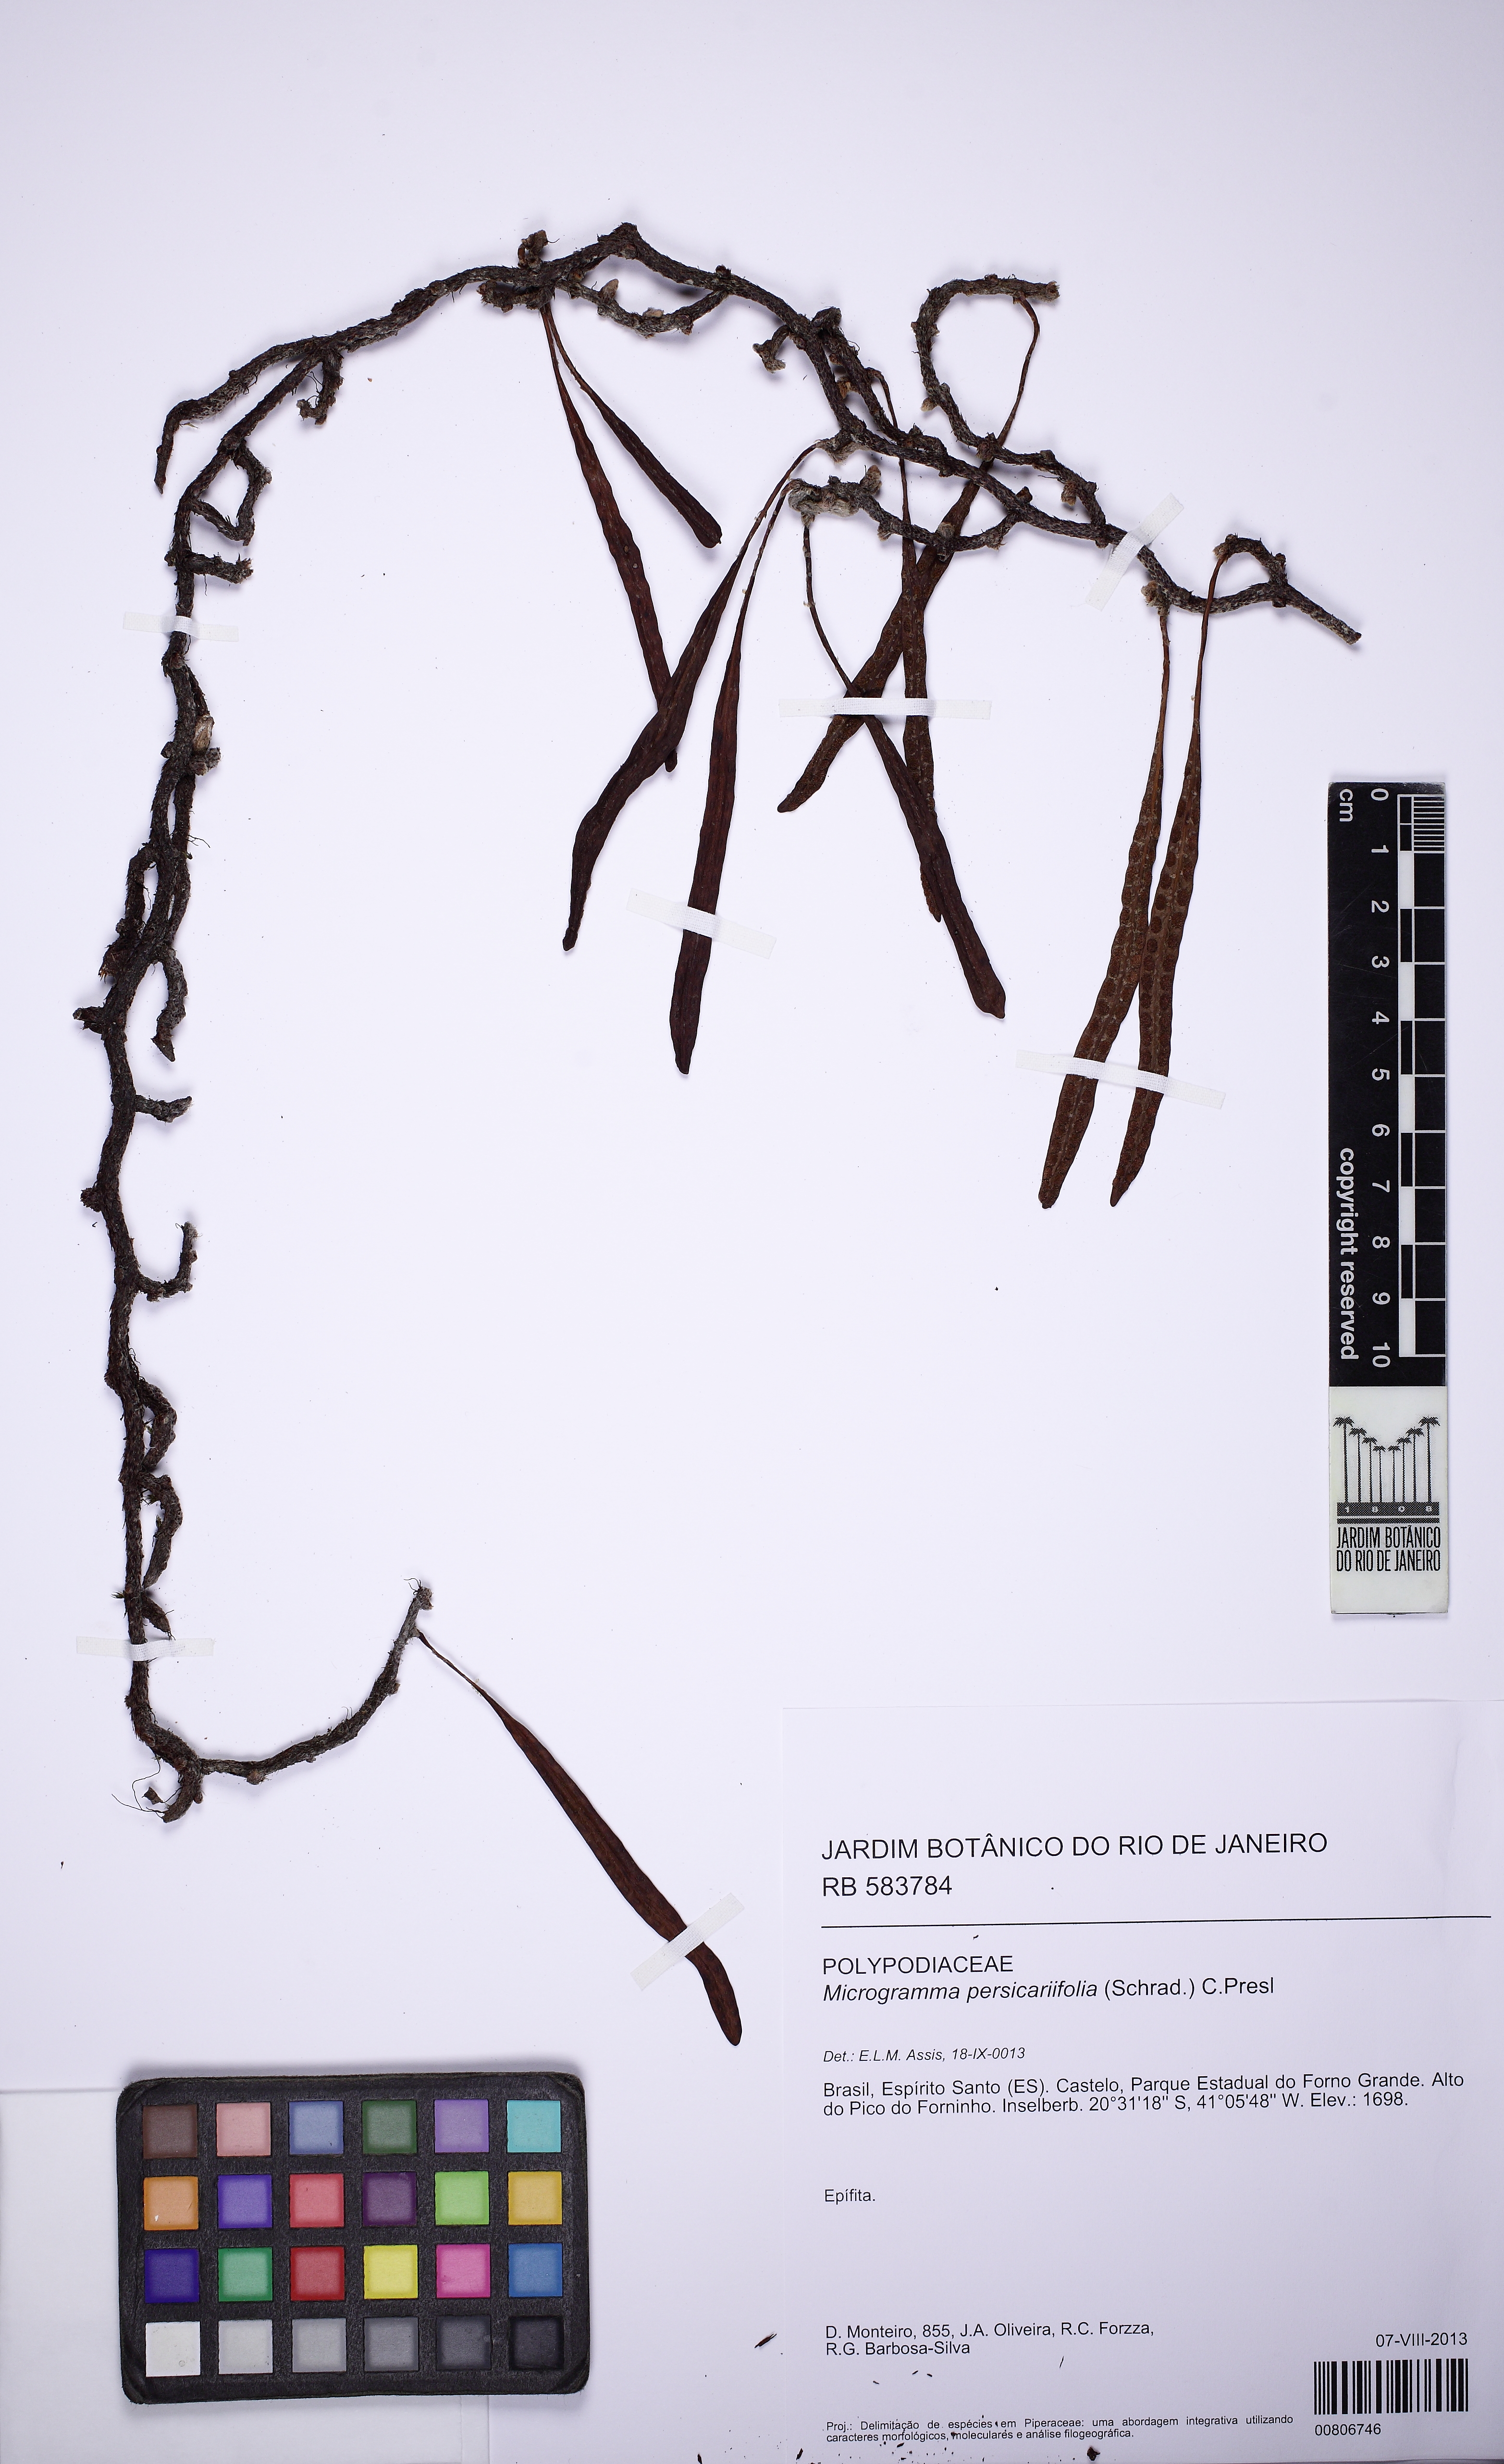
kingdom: Plantae
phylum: Tracheophyta
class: Polypodiopsida
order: Polypodiales
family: Polypodiaceae
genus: Microgramma
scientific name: Microgramma squamulosa
